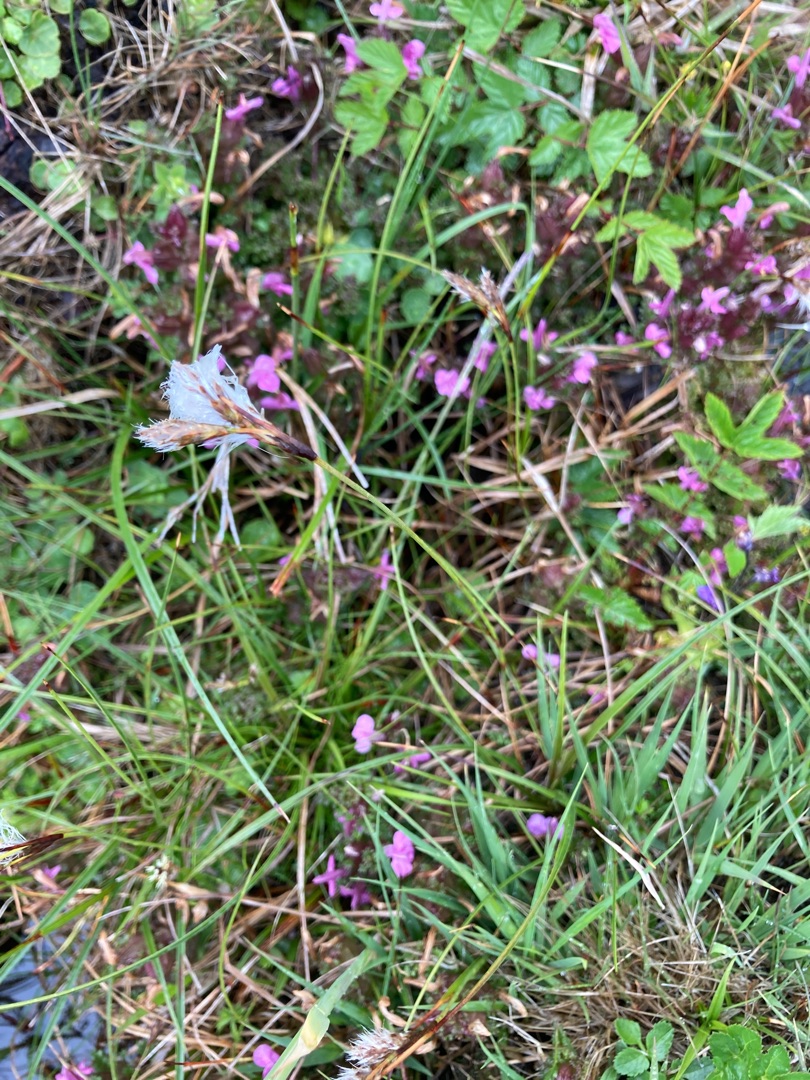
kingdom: Plantae
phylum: Tracheophyta
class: Liliopsida
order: Poales
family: Cyperaceae
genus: Eriophorum
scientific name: Eriophorum angustifolium
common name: Smalbladet kæruld
